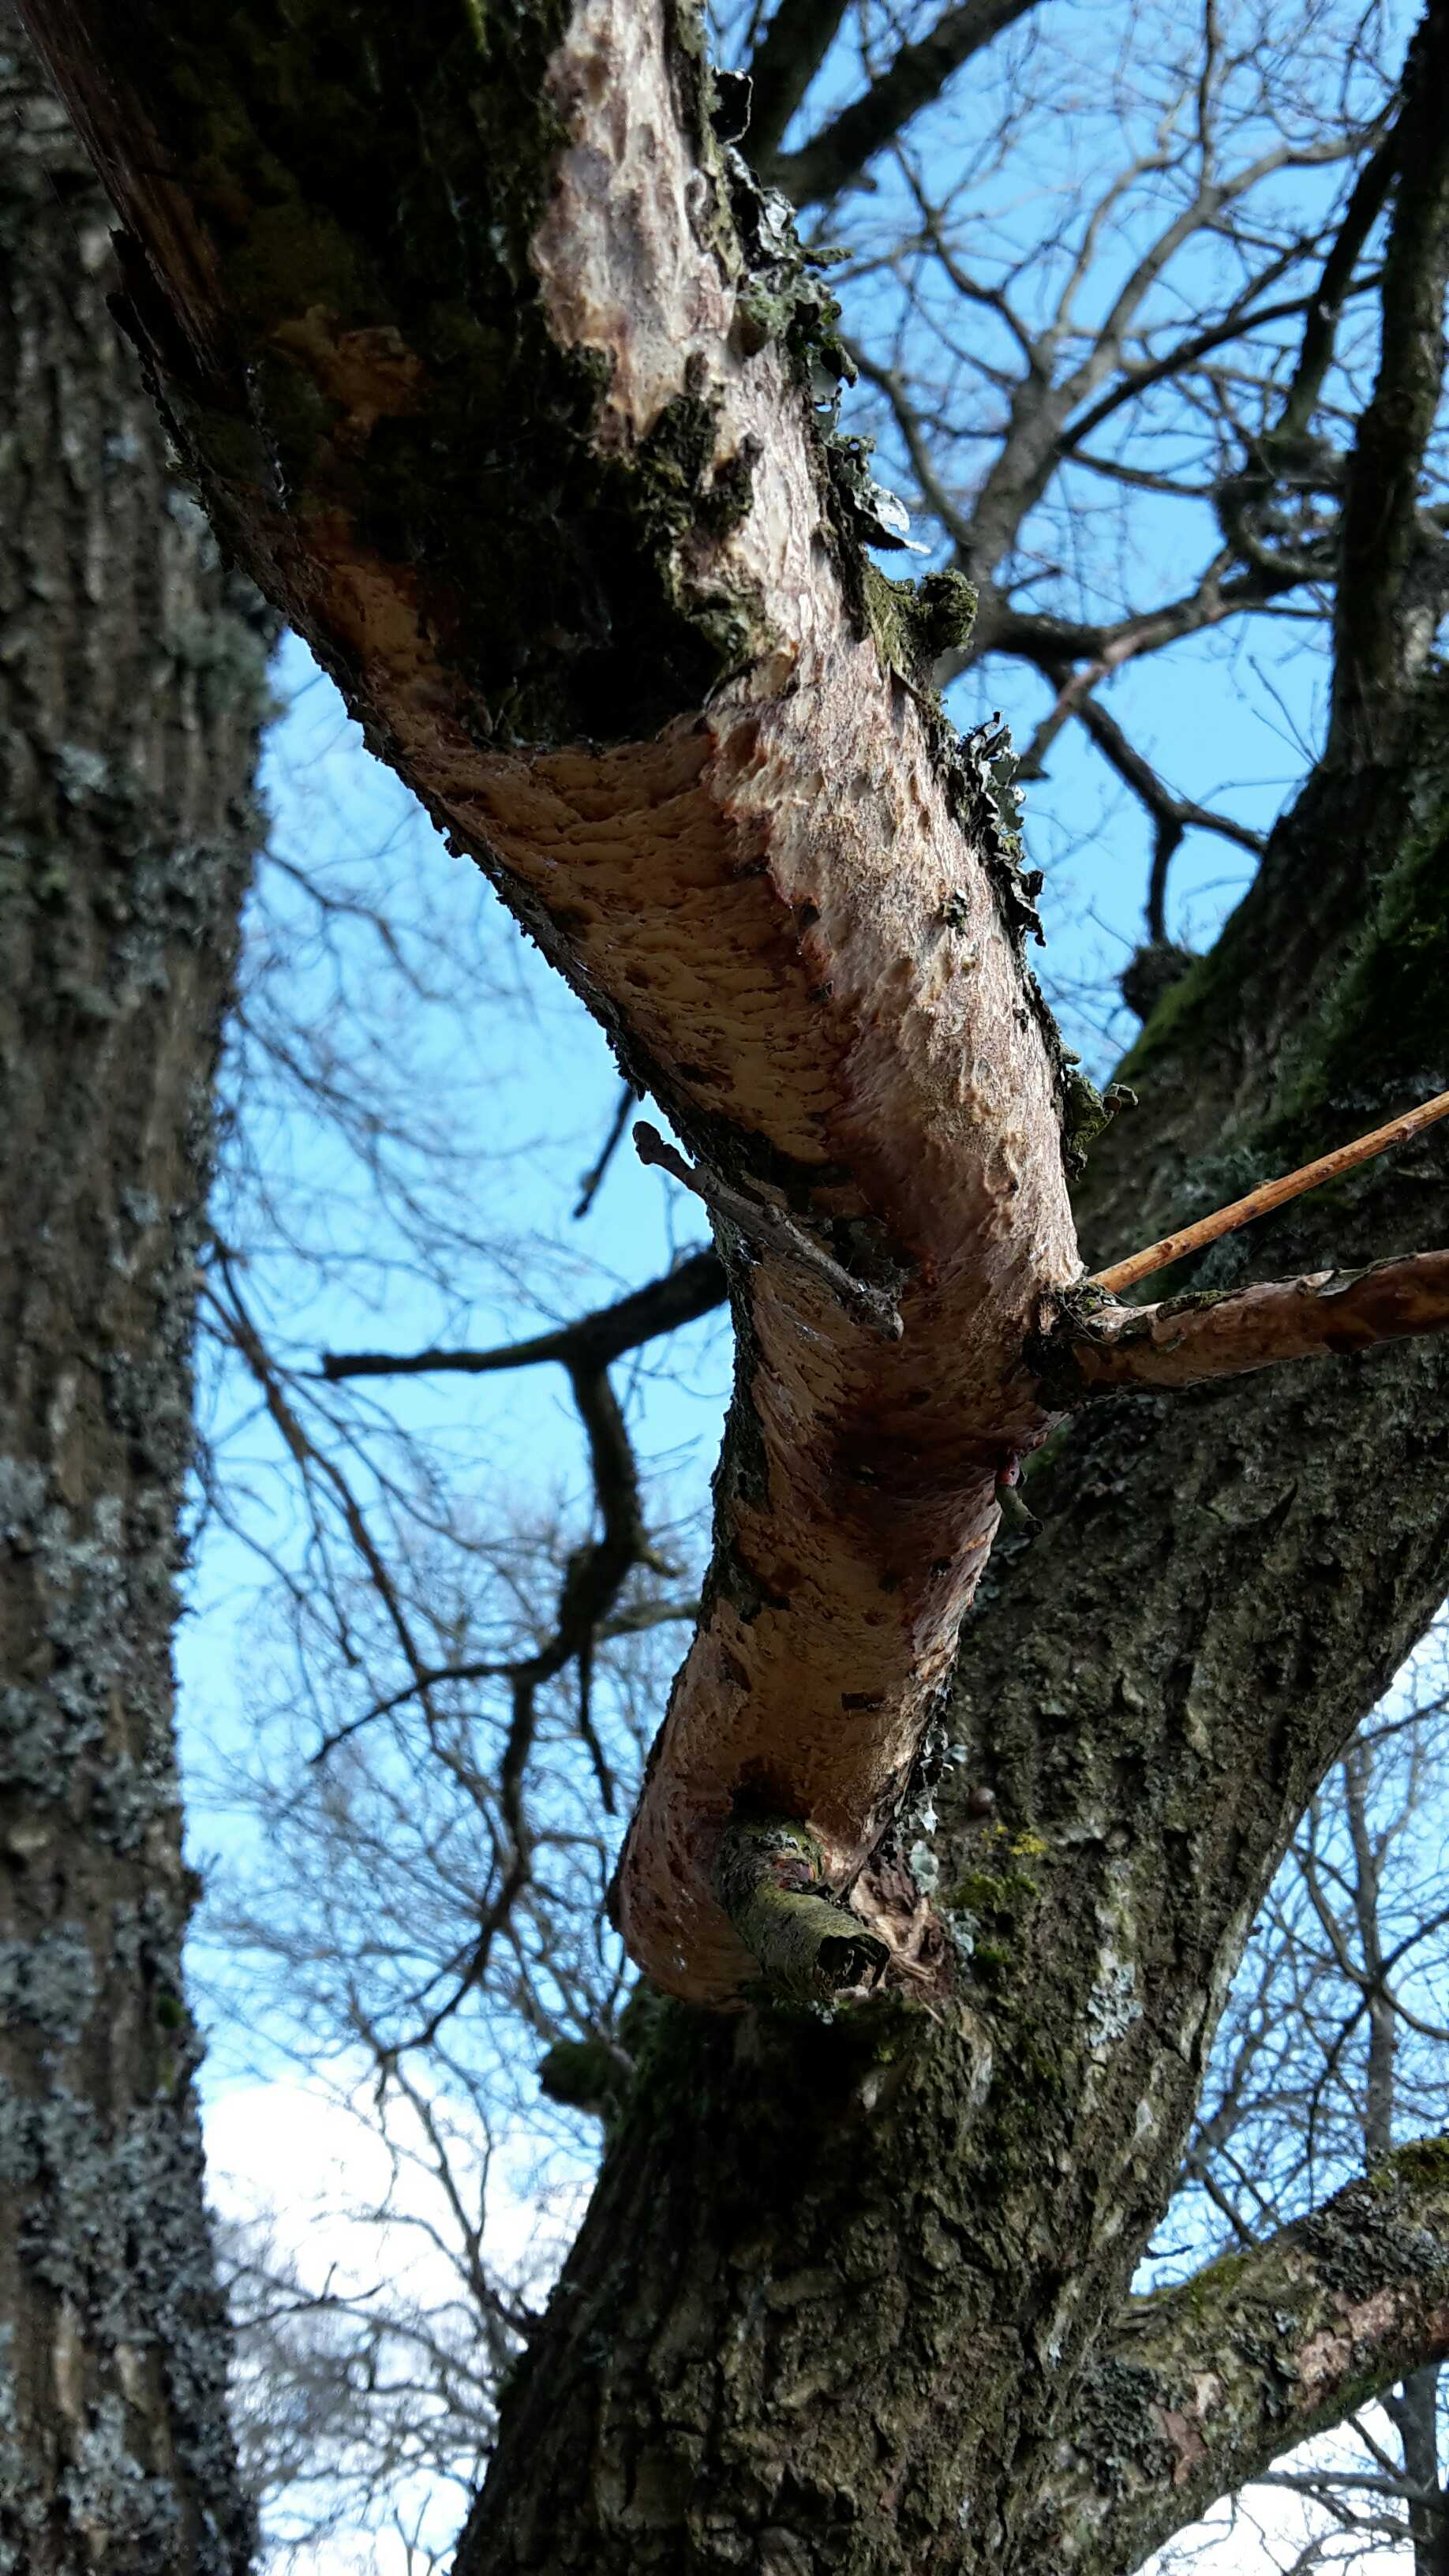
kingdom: Fungi
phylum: Basidiomycota
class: Agaricomycetes
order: Corticiales
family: Vuilleminiaceae
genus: Vuilleminia
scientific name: Vuilleminia comedens
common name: almindelig barksprænger
